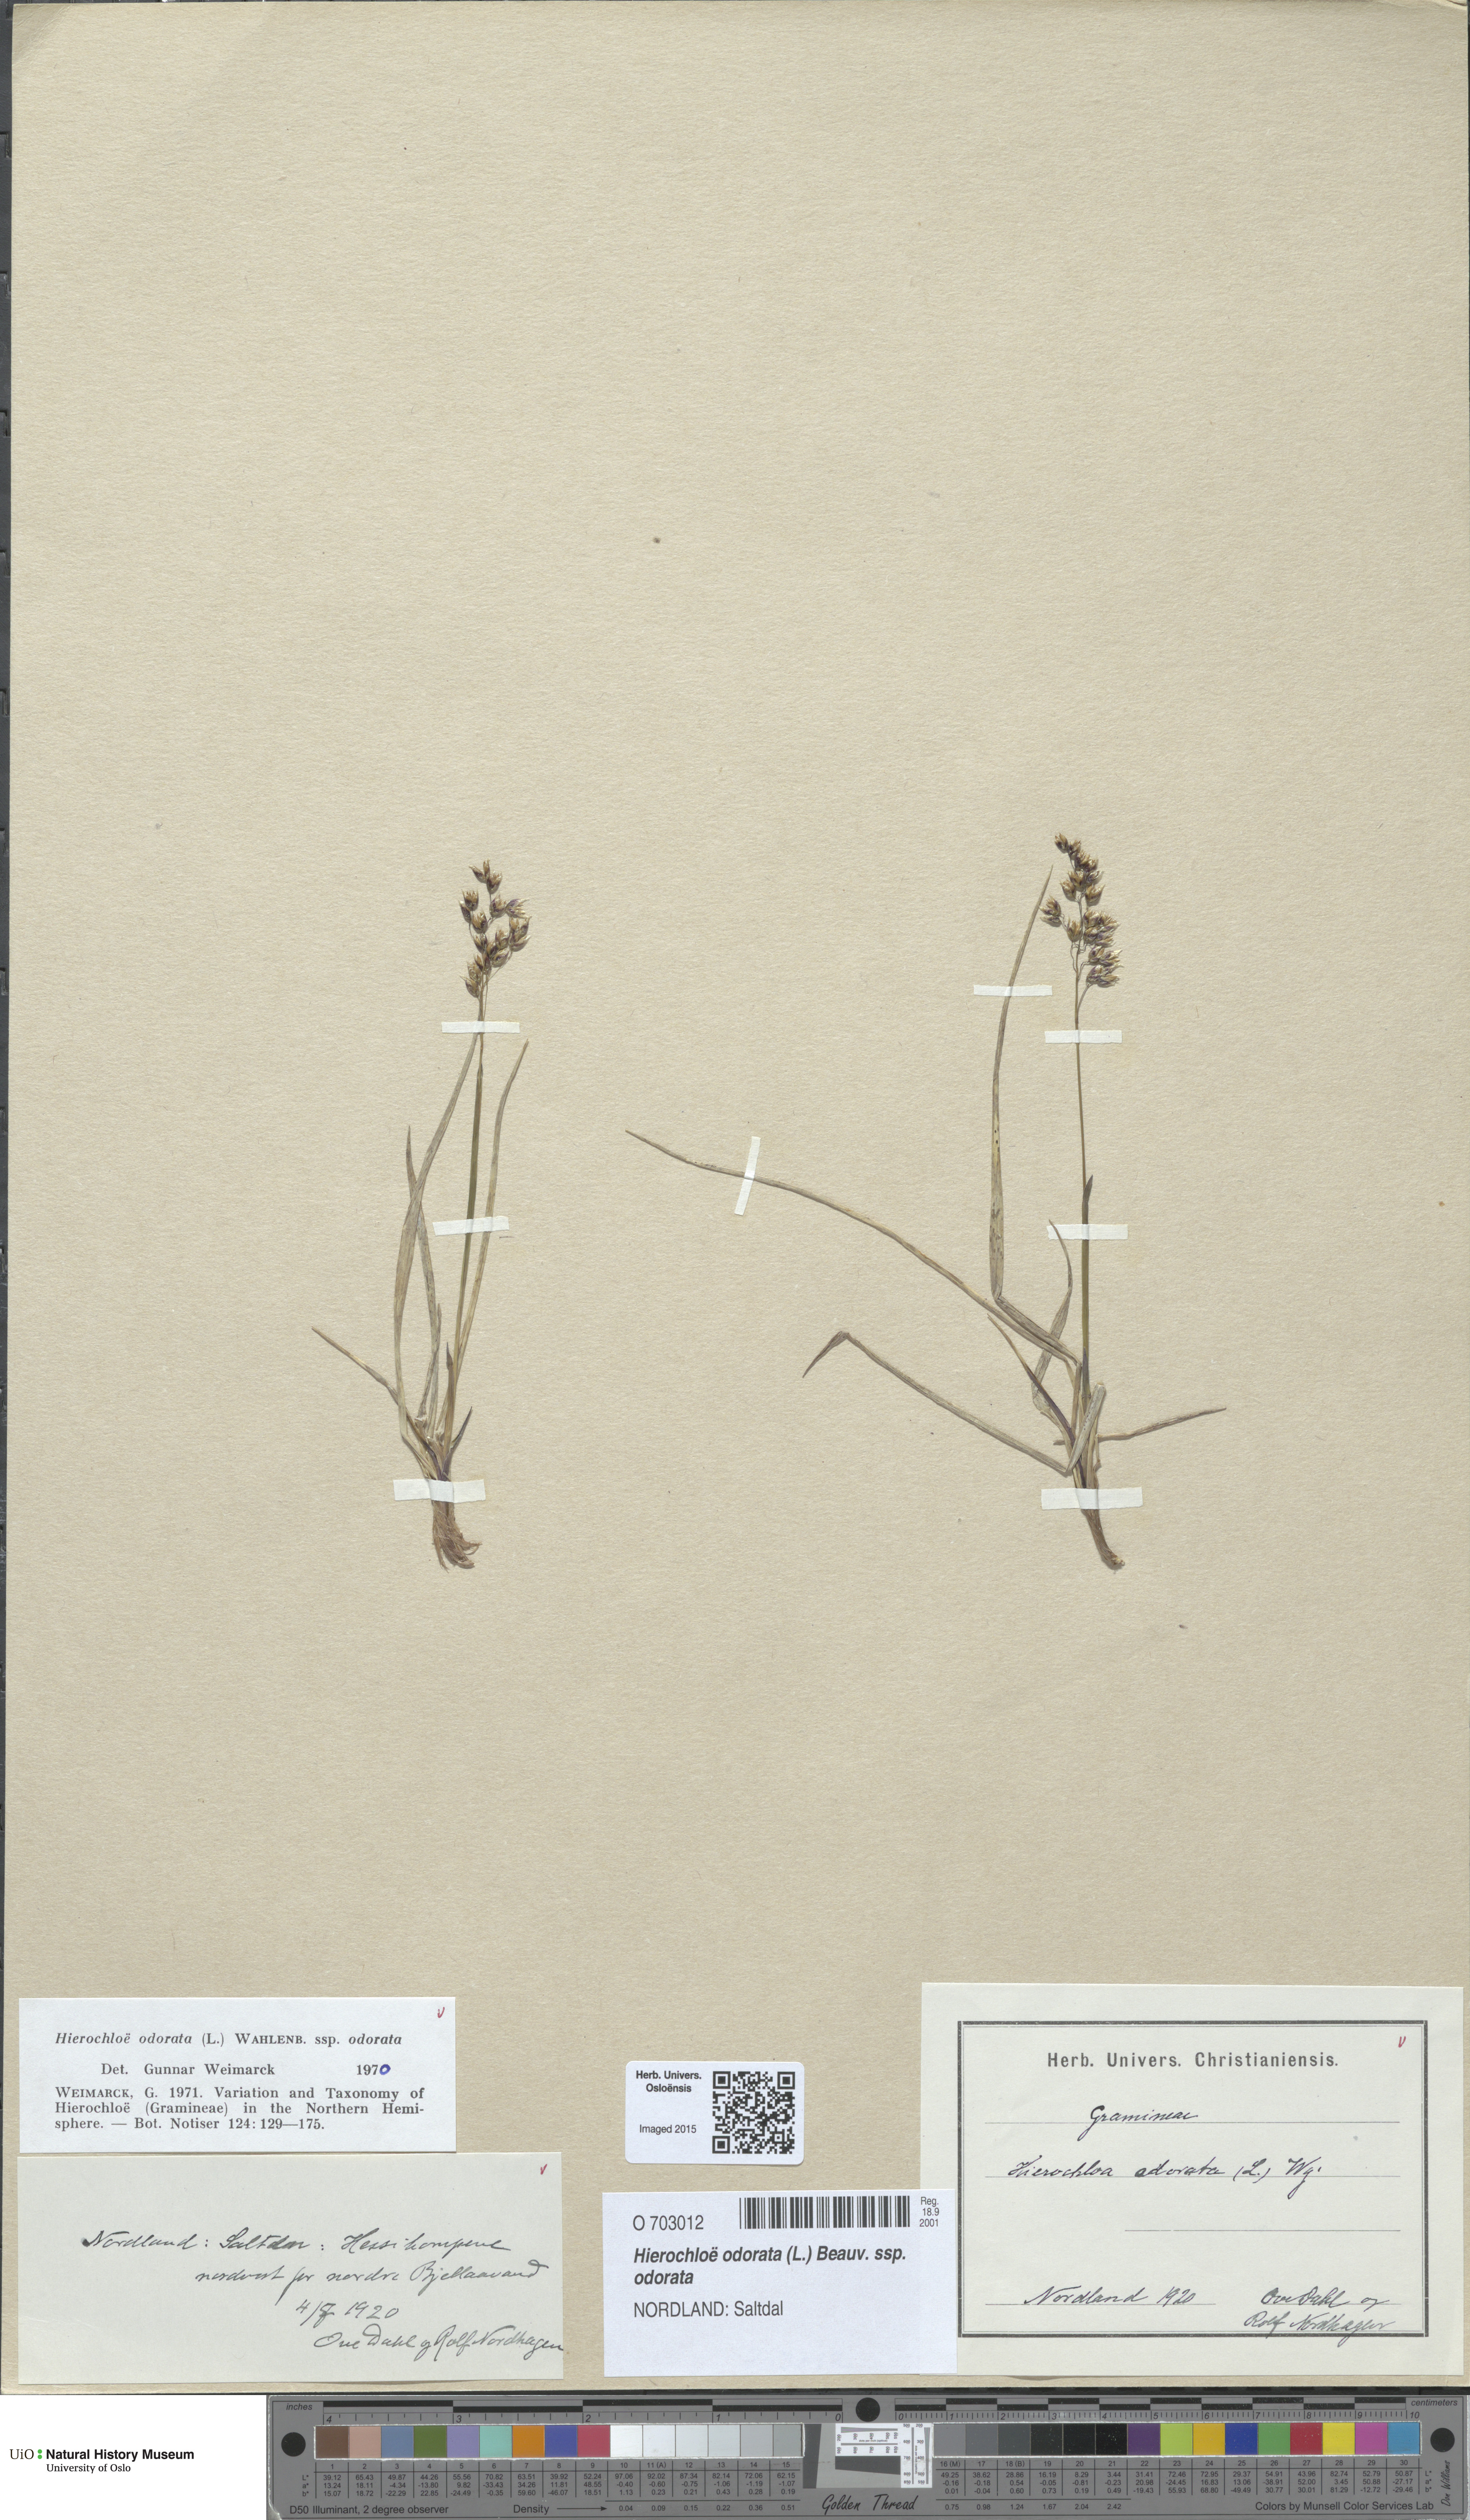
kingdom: Plantae
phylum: Tracheophyta
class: Liliopsida
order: Poales
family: Poaceae
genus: Anthoxanthum
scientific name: Anthoxanthum nitens
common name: Holy grass
